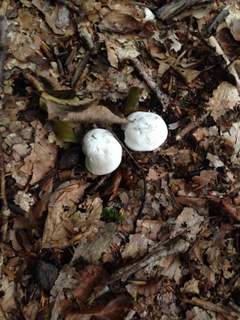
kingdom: Fungi
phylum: Basidiomycota
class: Agaricomycetes
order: Agaricales
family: Entolomataceae
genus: Clitopilus
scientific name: Clitopilus prunulus
